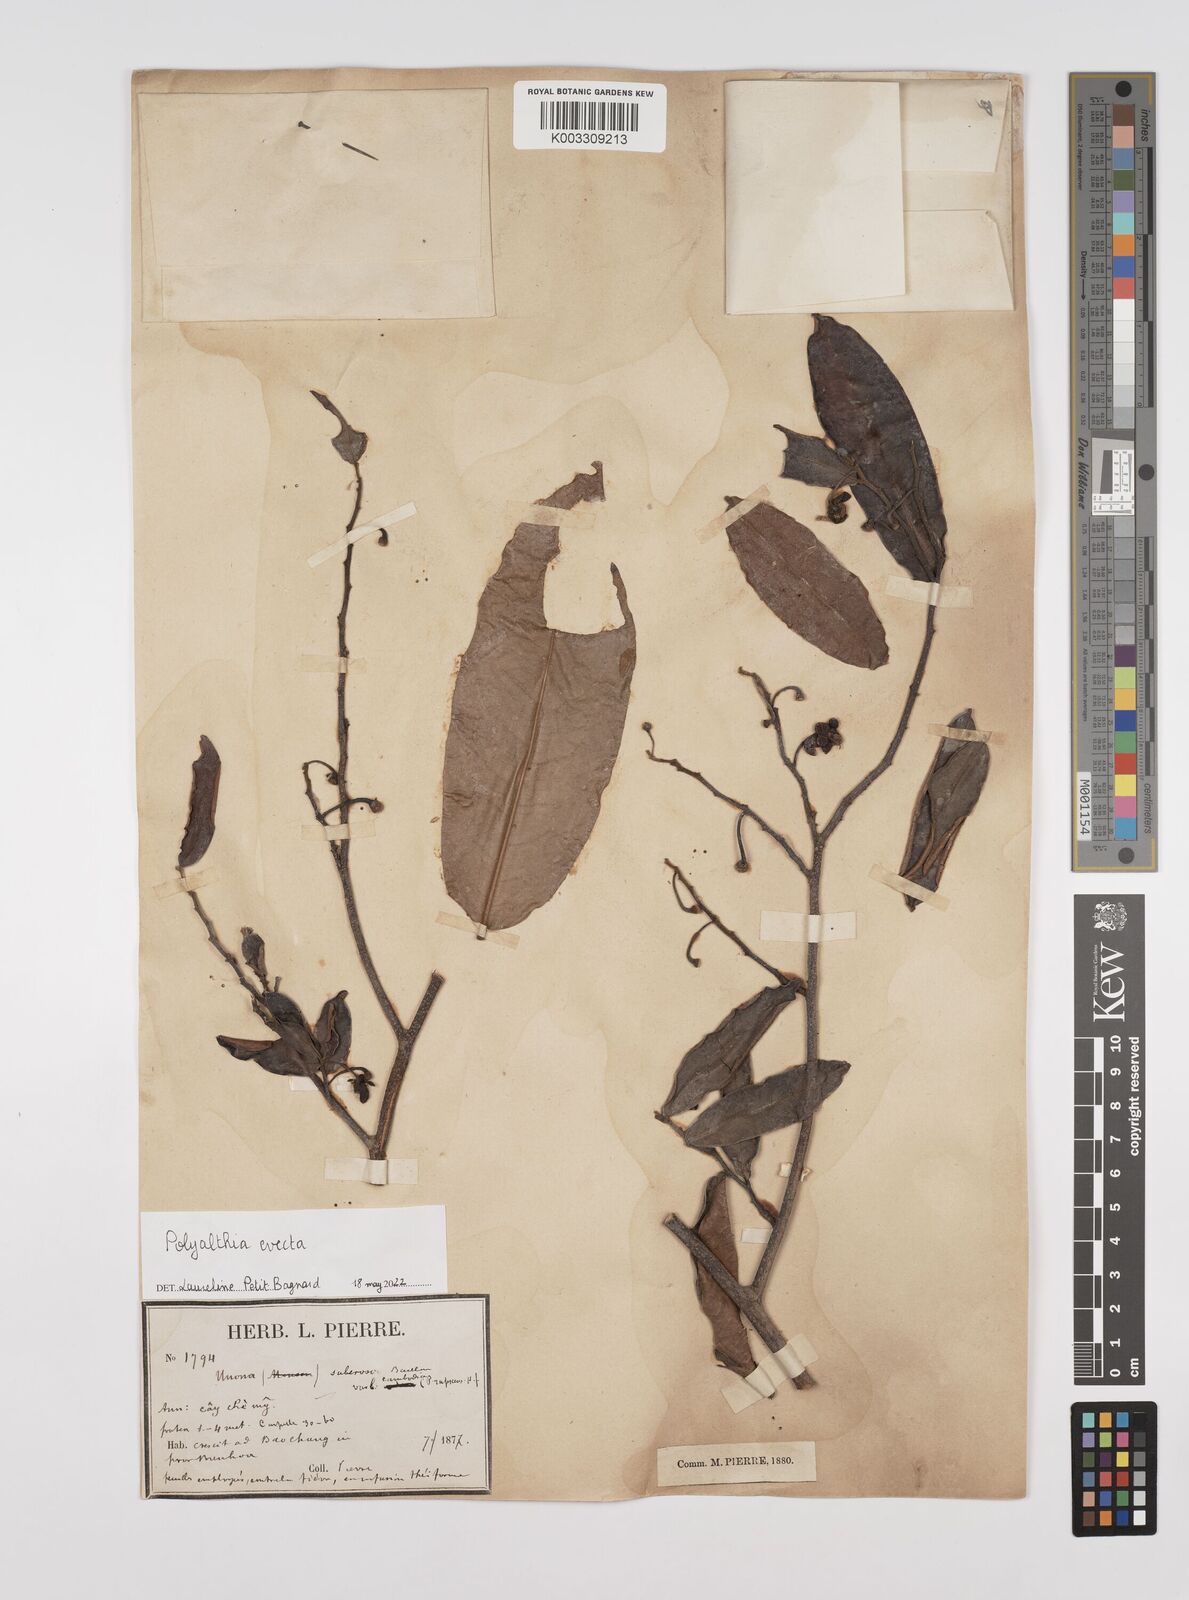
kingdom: Plantae
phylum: Tracheophyta
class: Magnoliopsida
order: Magnoliales
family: Annonaceae
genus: Polyalthia
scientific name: Polyalthia evecta
